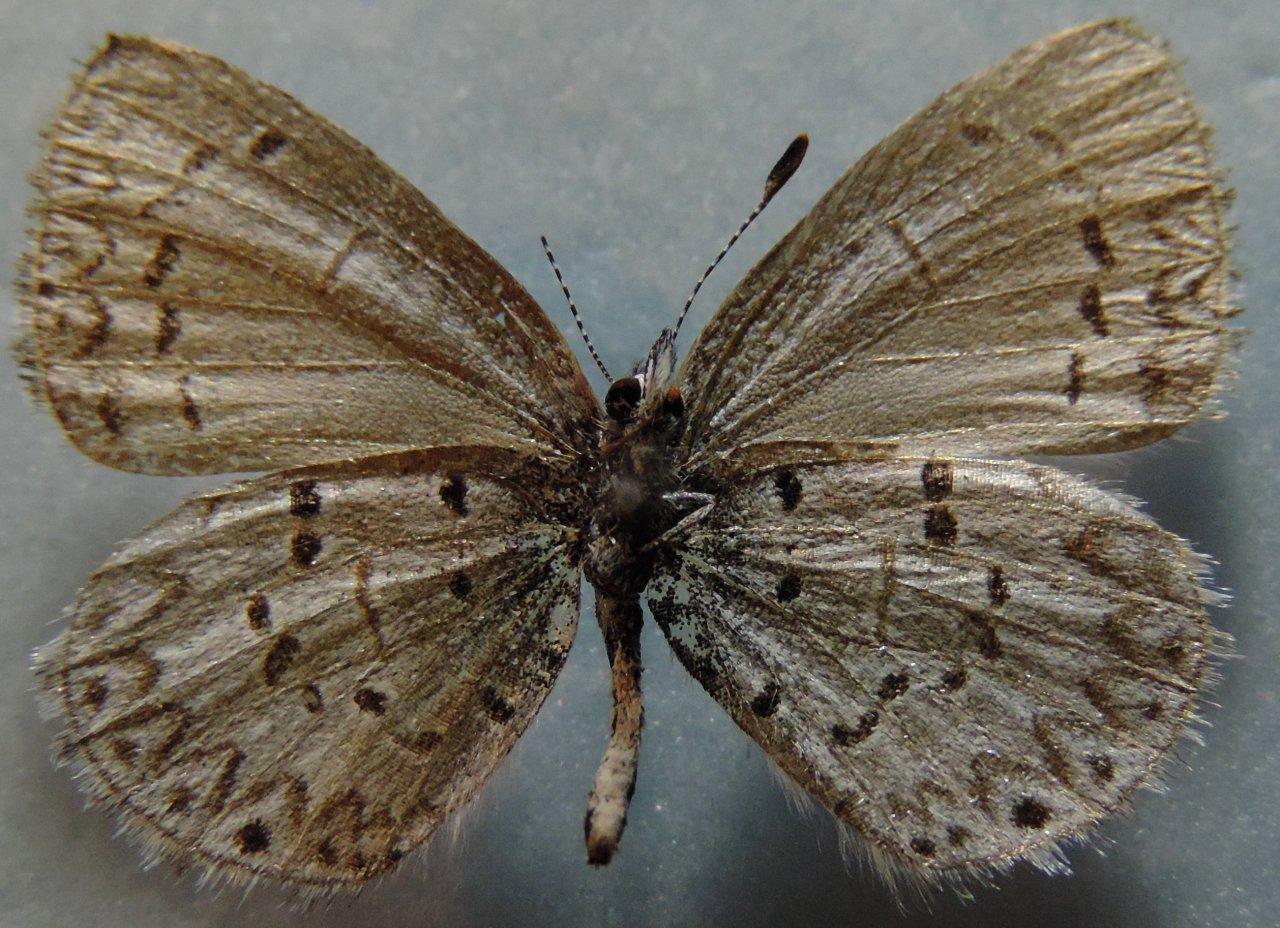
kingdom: Animalia
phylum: Arthropoda
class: Insecta
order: Lepidoptera
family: Lycaenidae
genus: Celastrina
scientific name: Celastrina lucia
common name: Northern Spring Azure
